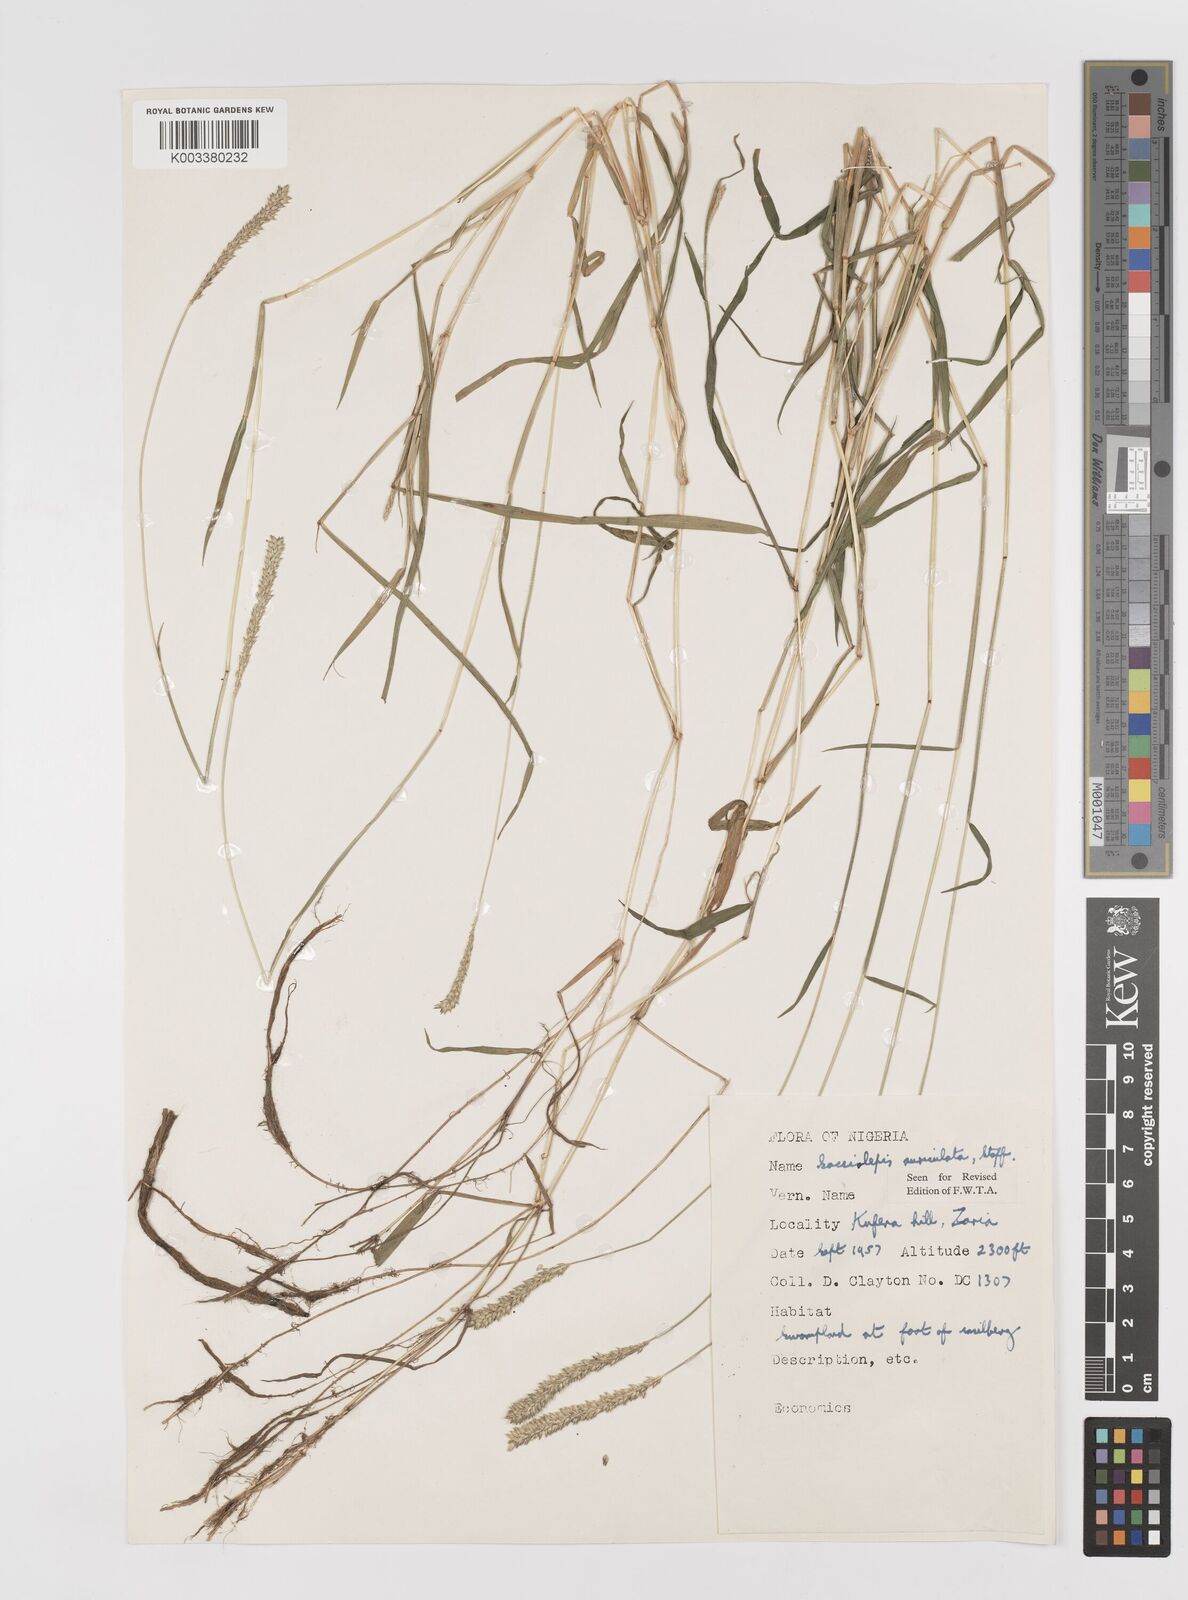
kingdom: Plantae
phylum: Tracheophyta
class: Liliopsida
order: Poales
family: Poaceae
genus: Sacciolepis
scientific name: Sacciolepis indica
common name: Glenwoodgrass
